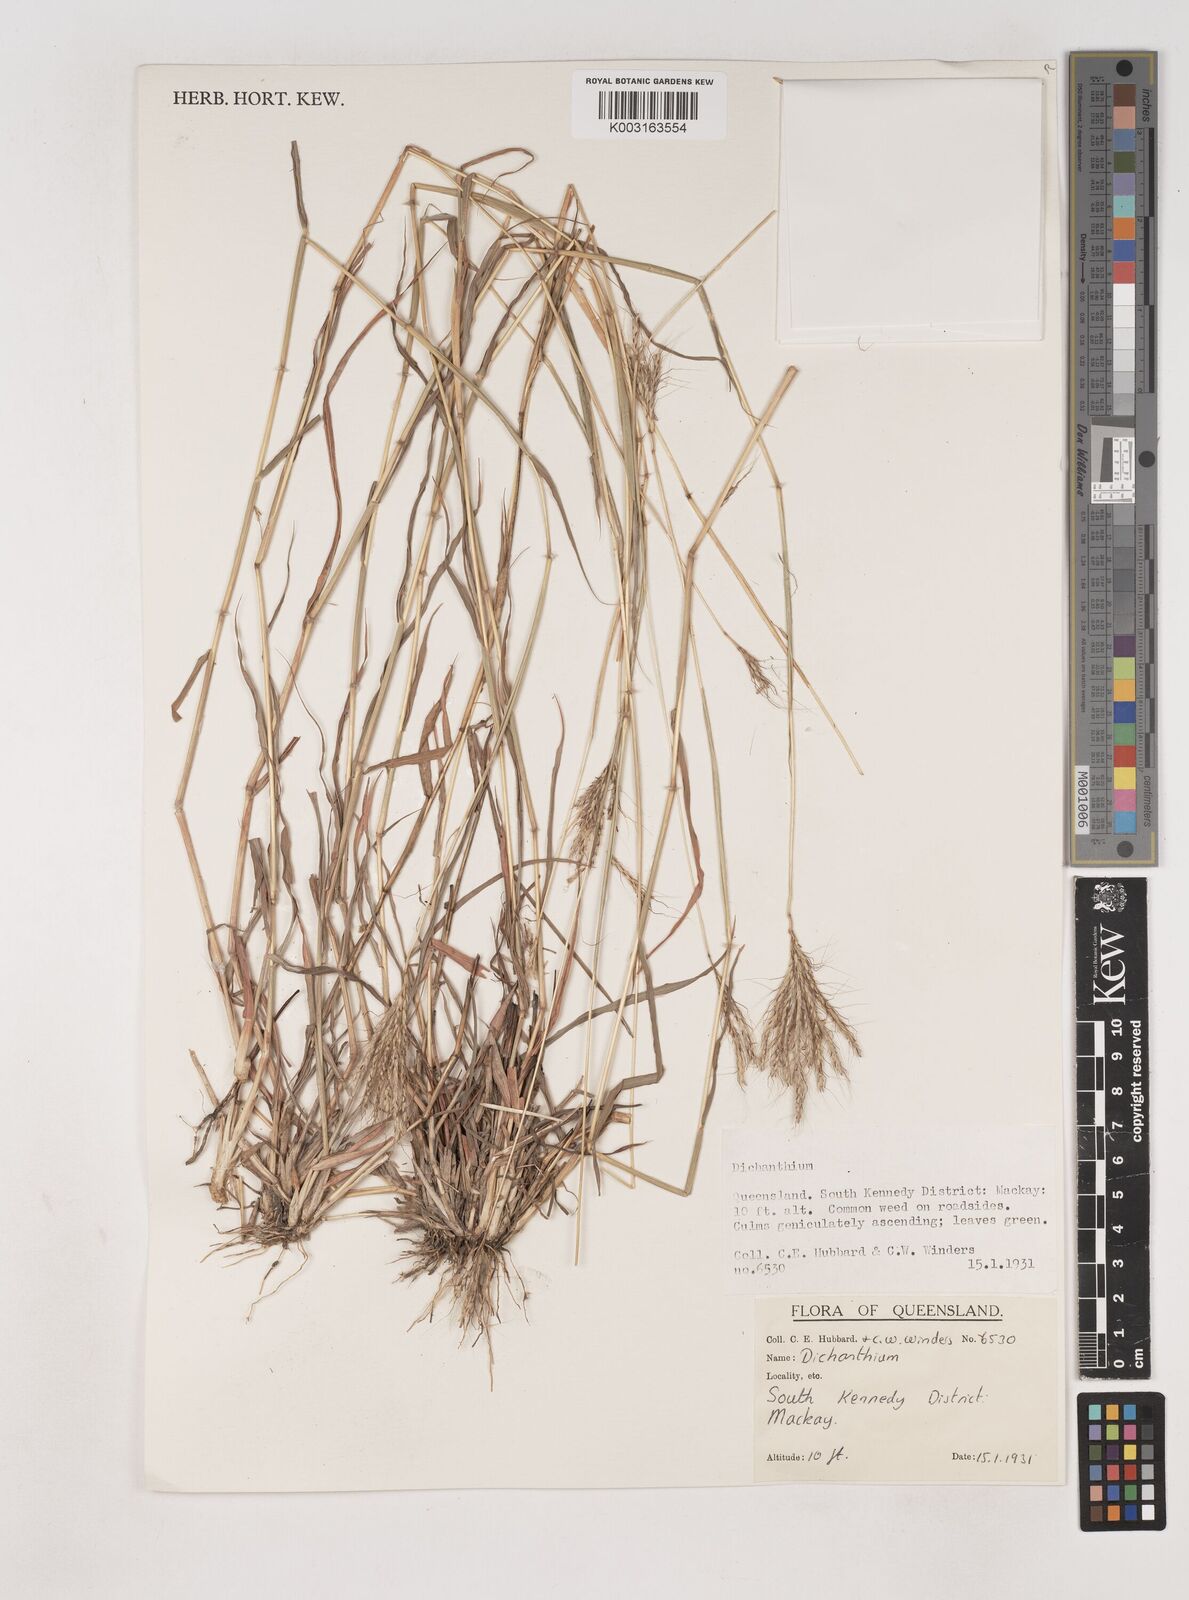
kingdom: Plantae
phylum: Tracheophyta
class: Liliopsida
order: Poales
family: Poaceae
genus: Dichanthium
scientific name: Dichanthium
